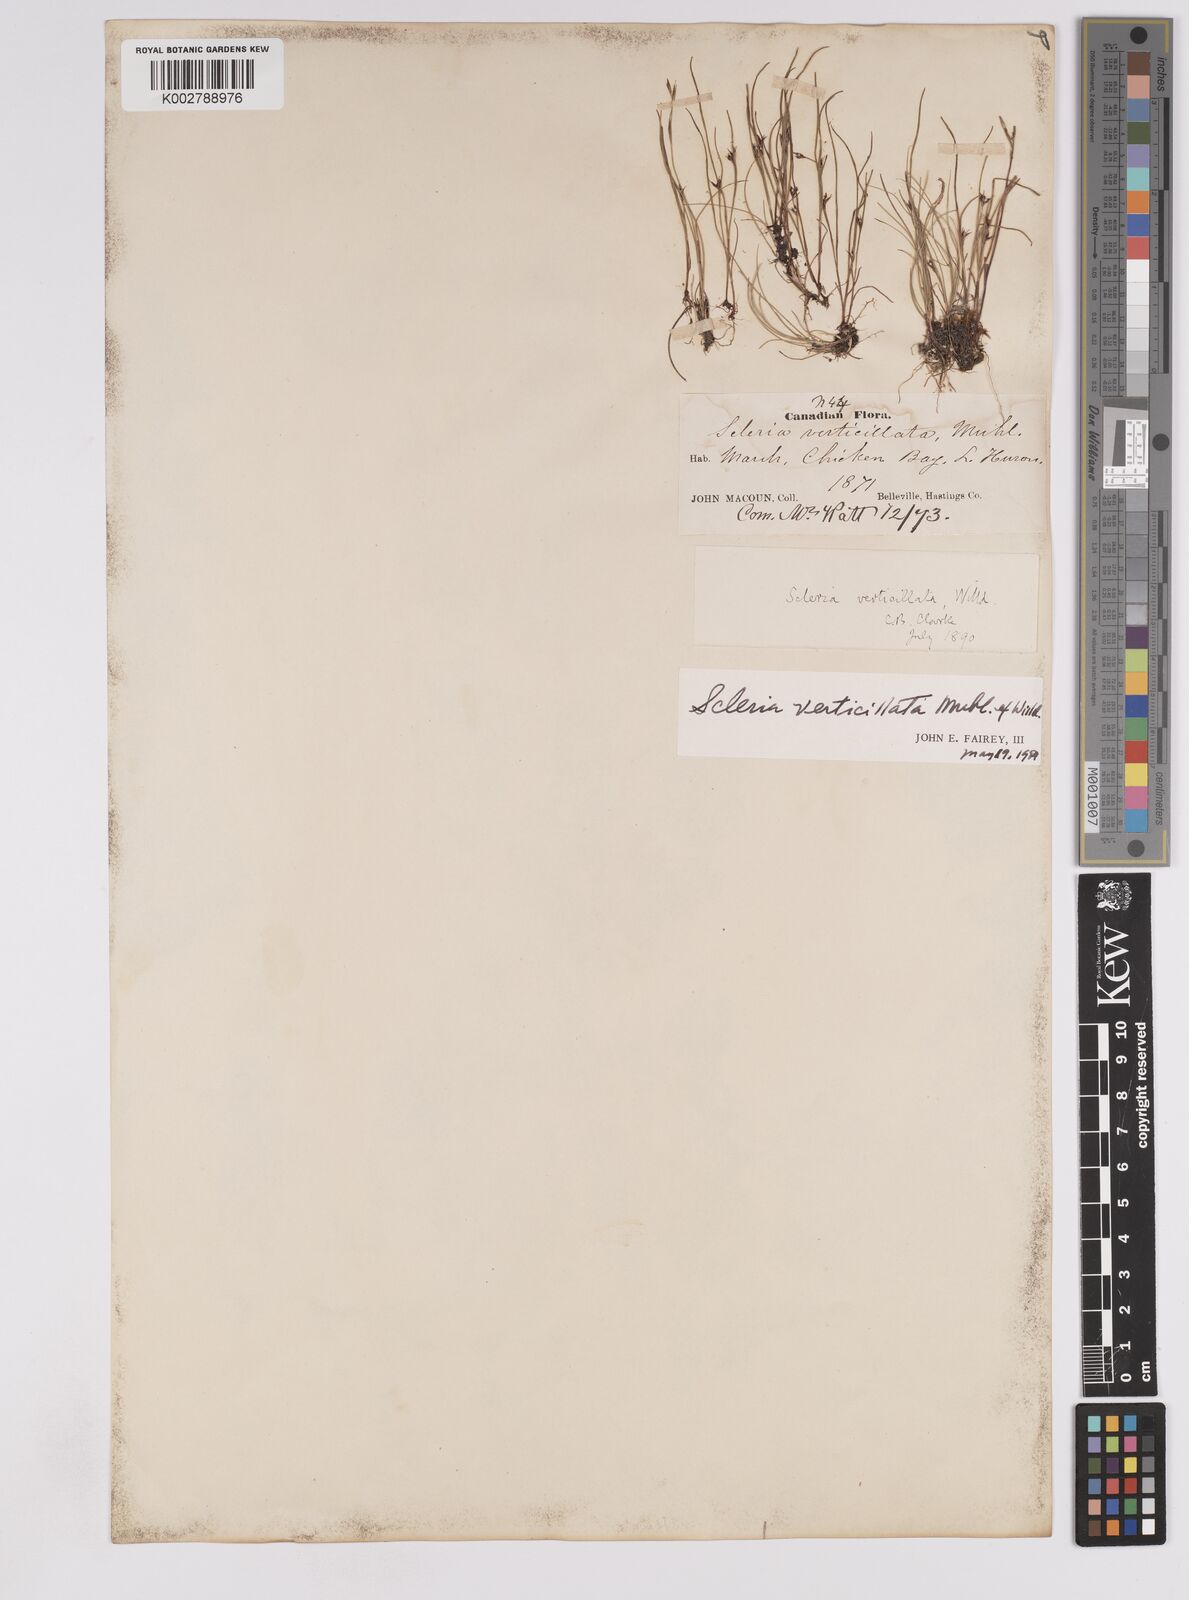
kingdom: Plantae
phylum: Tracheophyta
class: Liliopsida
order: Poales
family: Cyperaceae
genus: Scleria
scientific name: Scleria verticillata
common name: Low nutrush
